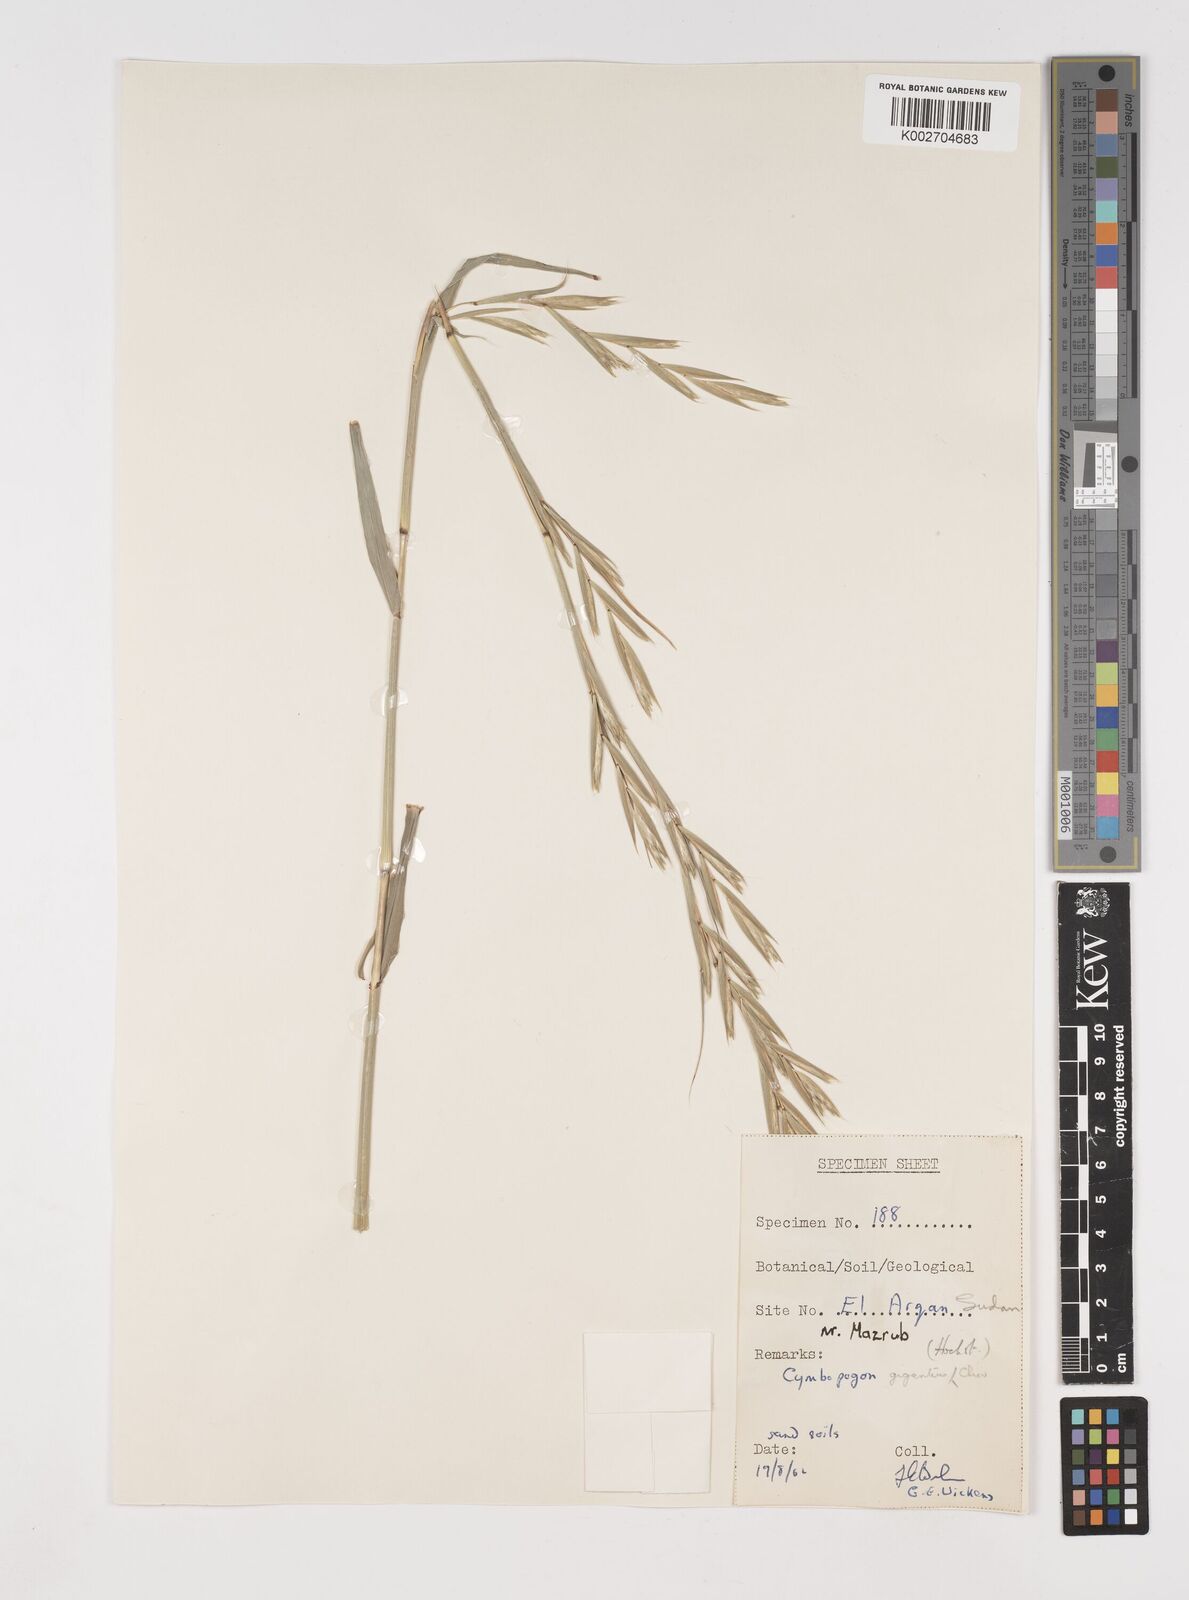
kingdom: Plantae
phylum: Tracheophyta
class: Liliopsida
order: Poales
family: Poaceae
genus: Cymbopogon
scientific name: Cymbopogon giganteus
